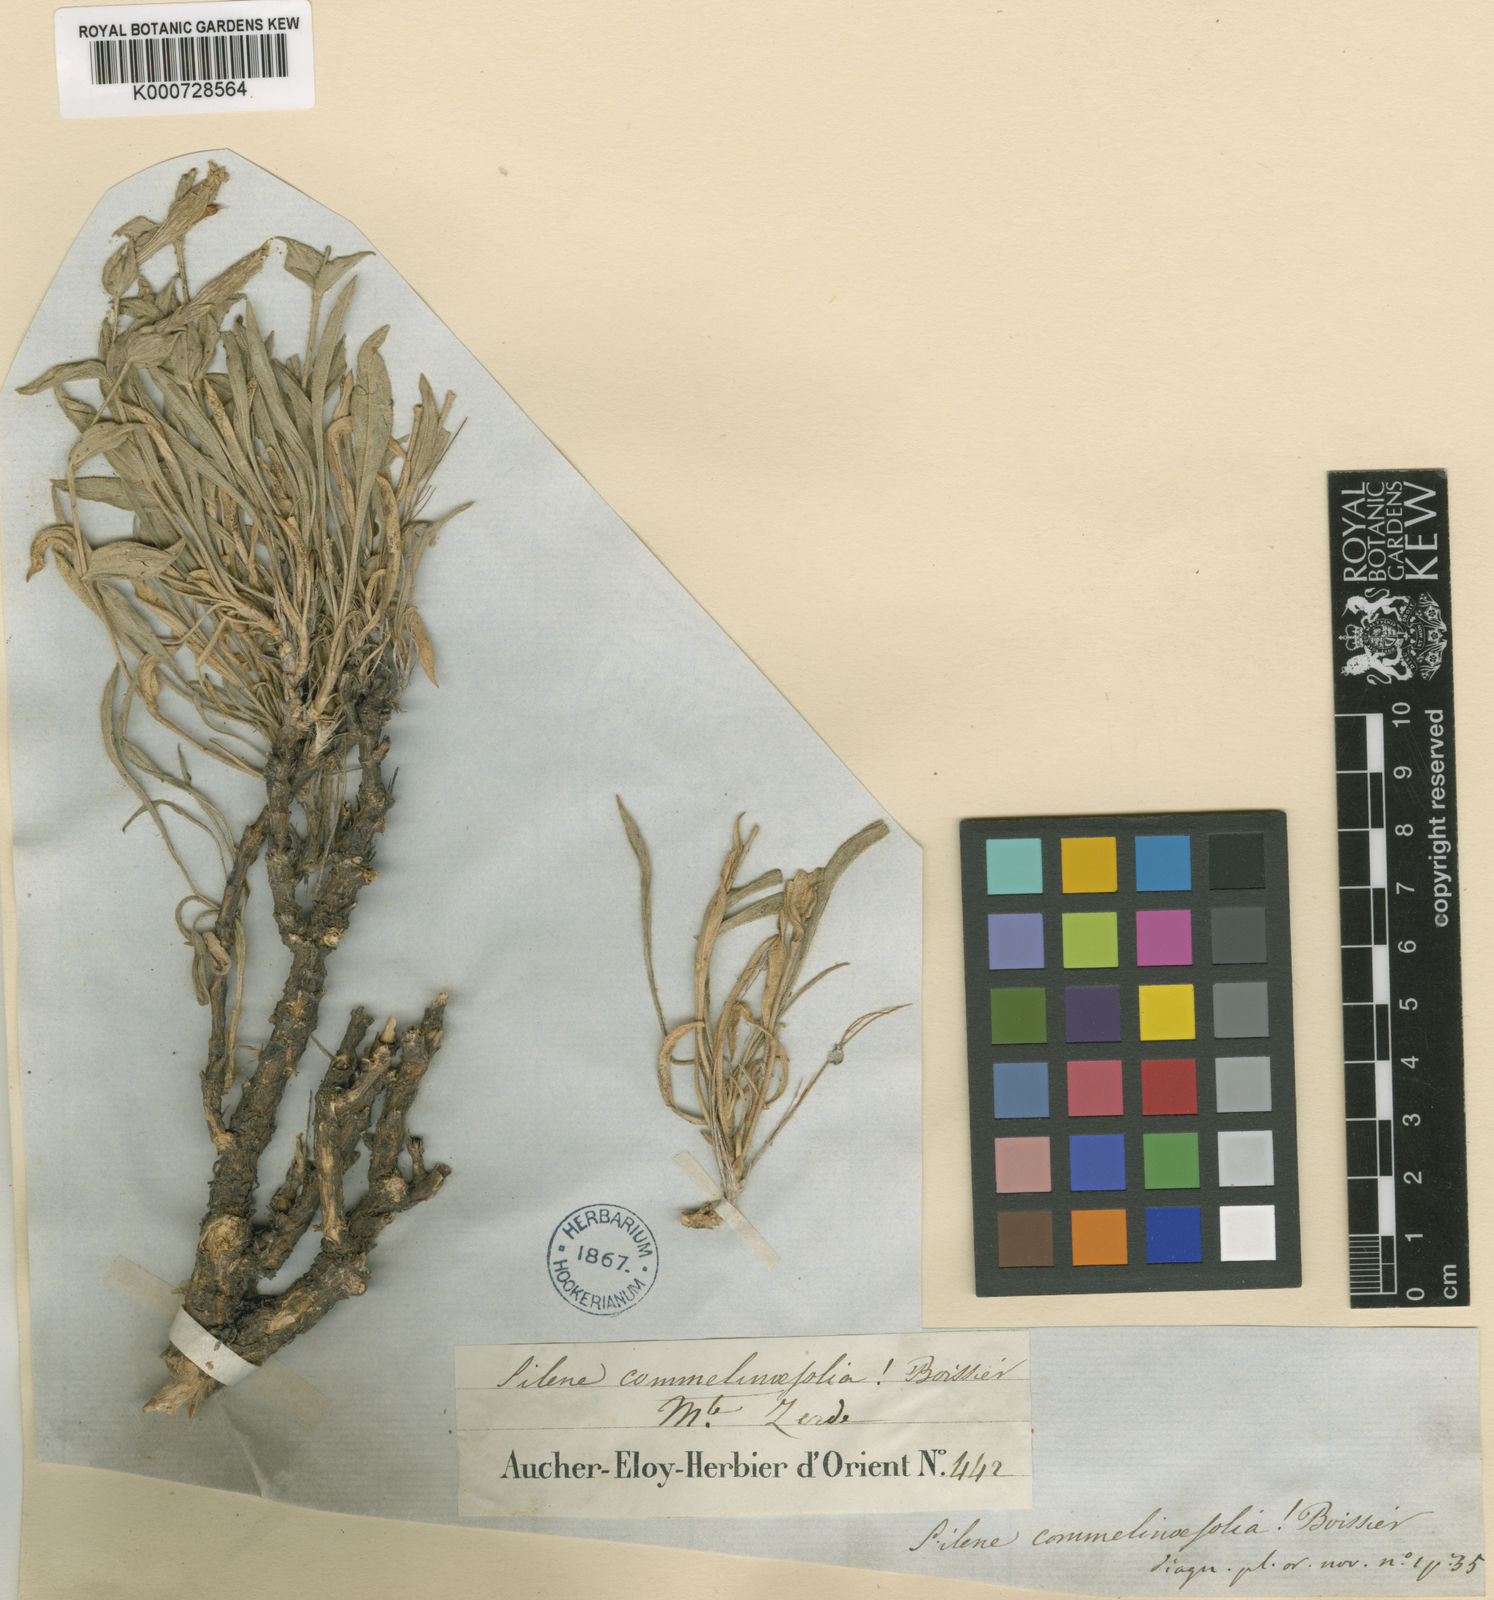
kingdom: Plantae
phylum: Tracheophyta
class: Magnoliopsida
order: Caryophyllales
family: Caryophyllaceae
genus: Silene
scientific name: Silene commelinifolia
